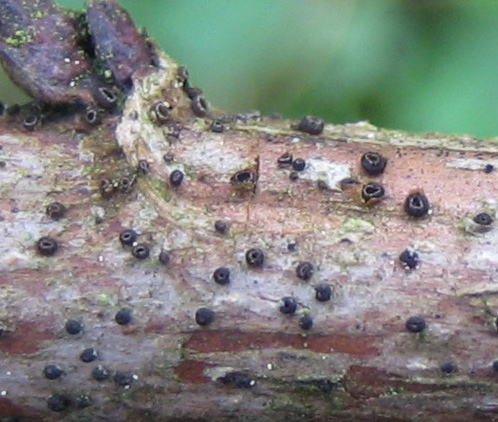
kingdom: Fungi
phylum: Ascomycota
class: Leotiomycetes
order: Helotiales
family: Dermateaceae
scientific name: Dermateaceae
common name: gråskivefamilien
